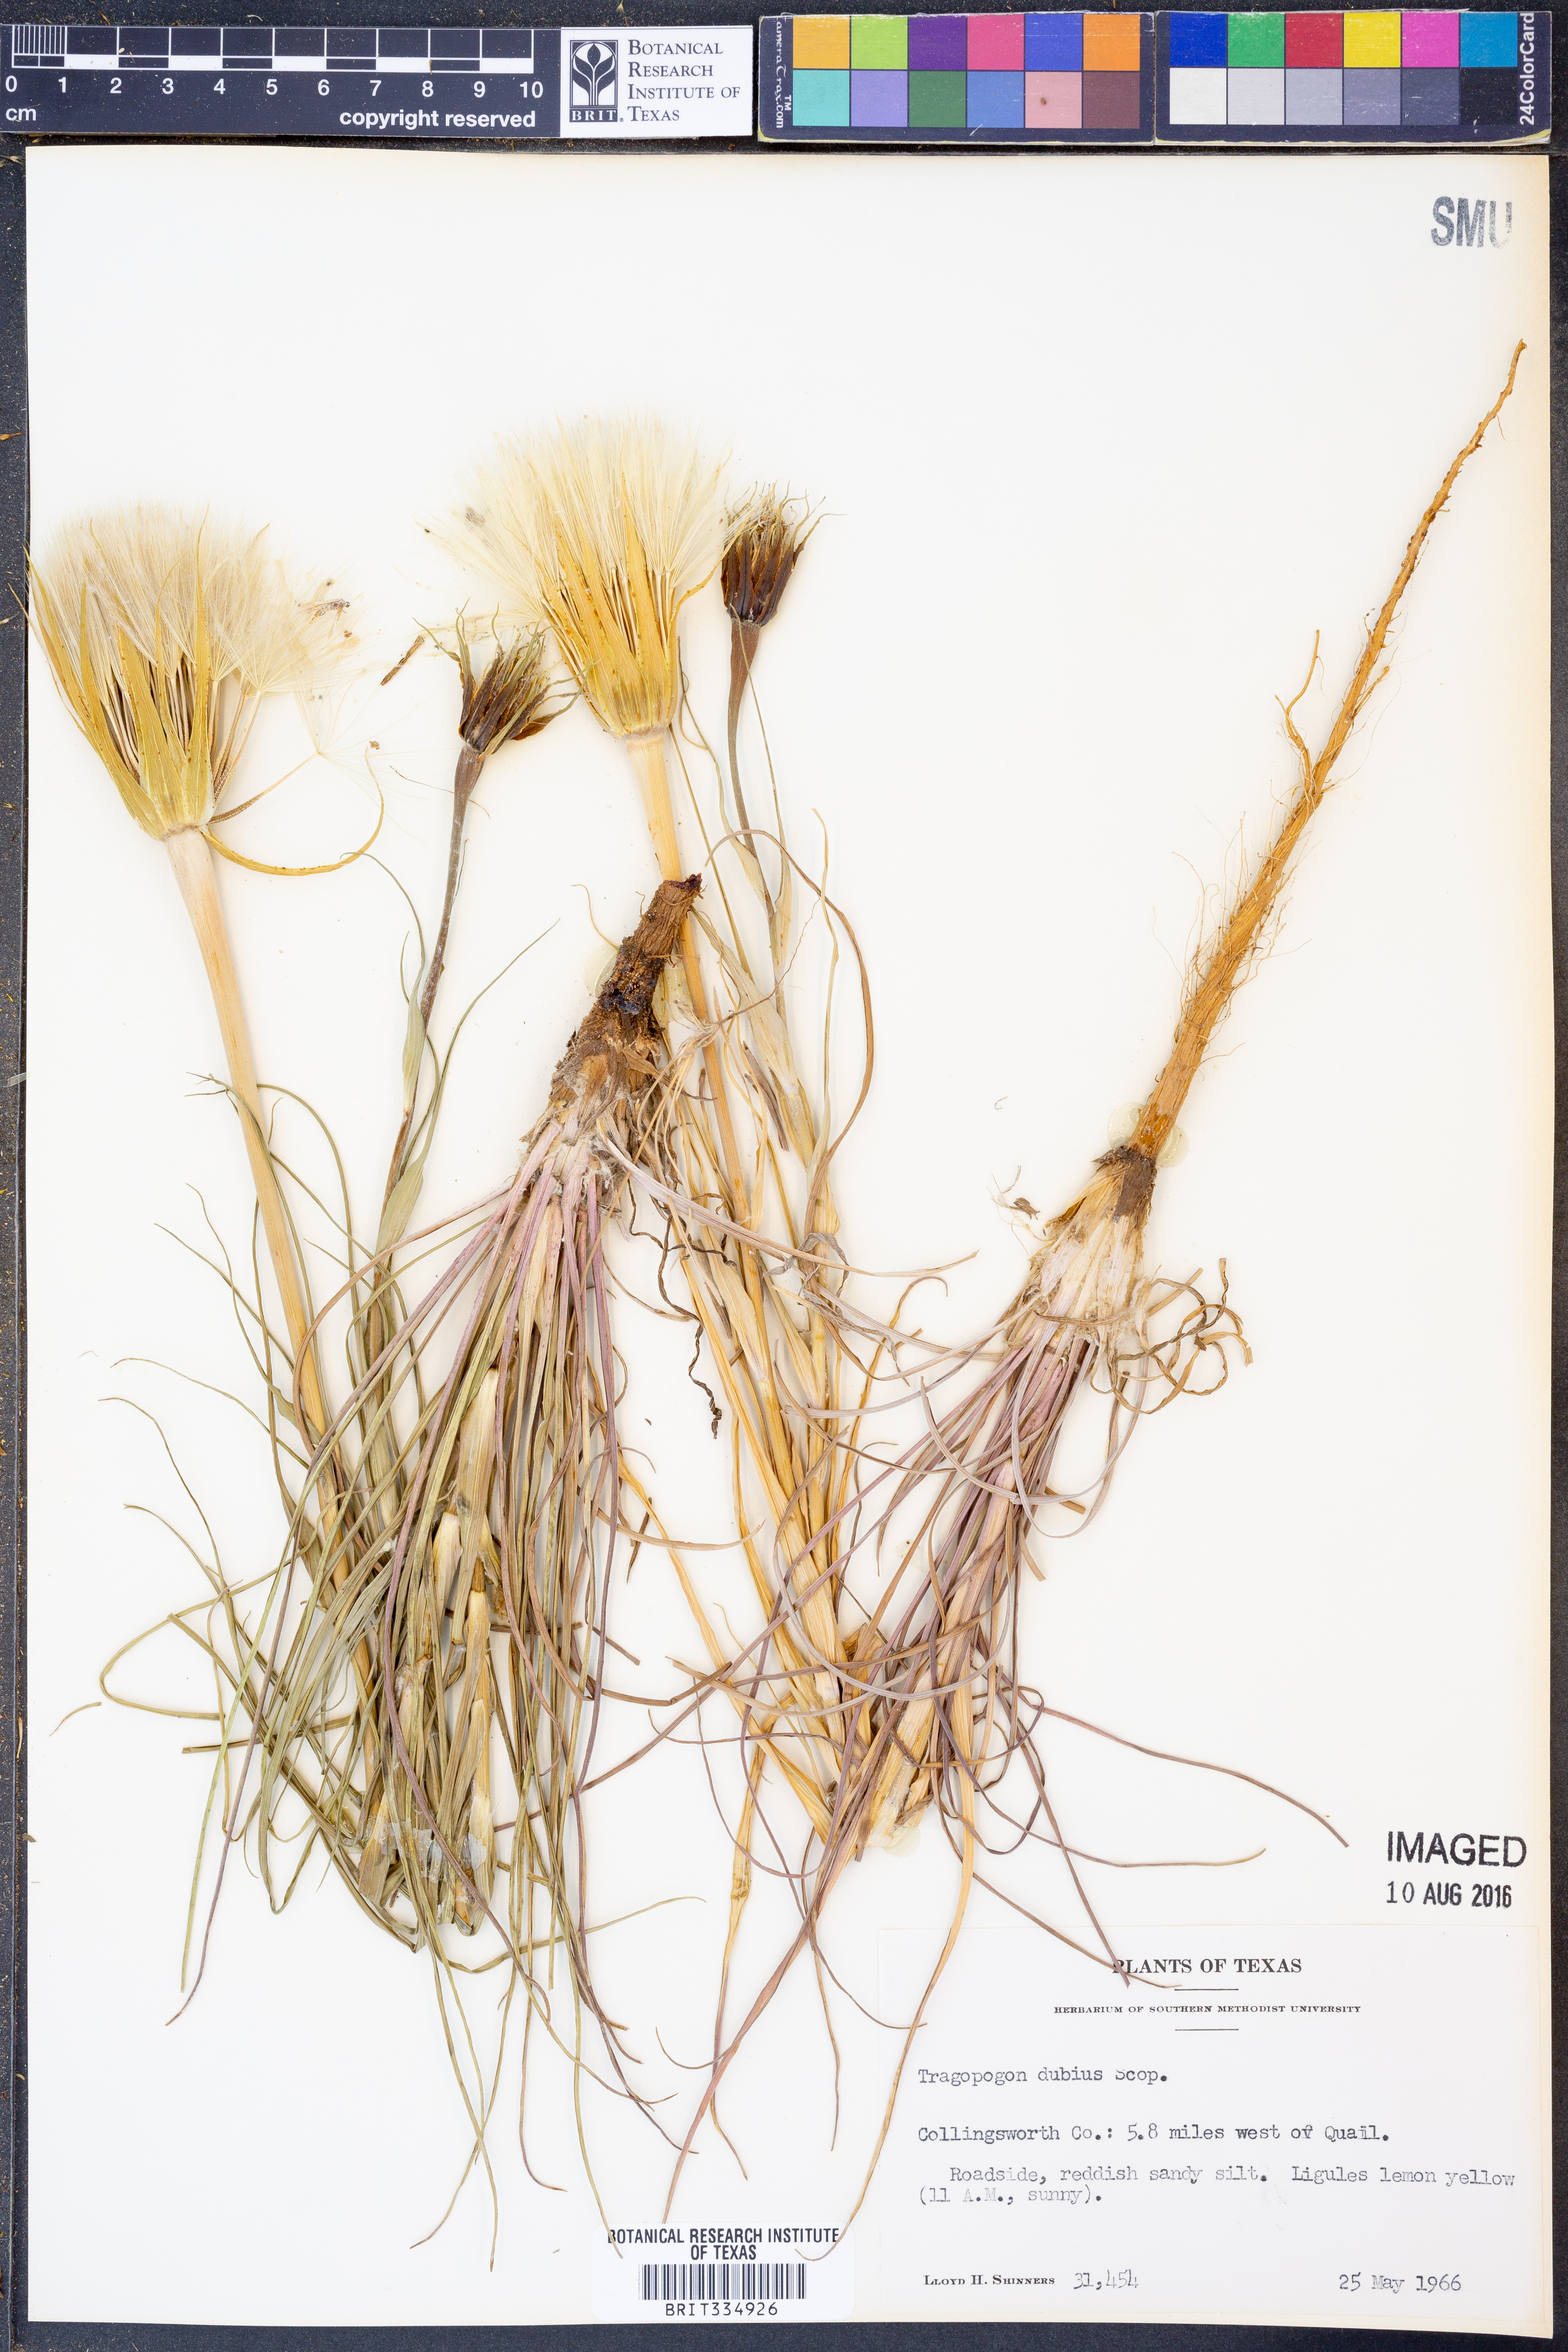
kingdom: Plantae
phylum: Tracheophyta
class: Magnoliopsida
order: Asterales
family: Asteraceae
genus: Tragopogon
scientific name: Tragopogon dubius
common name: Yellow salsify
